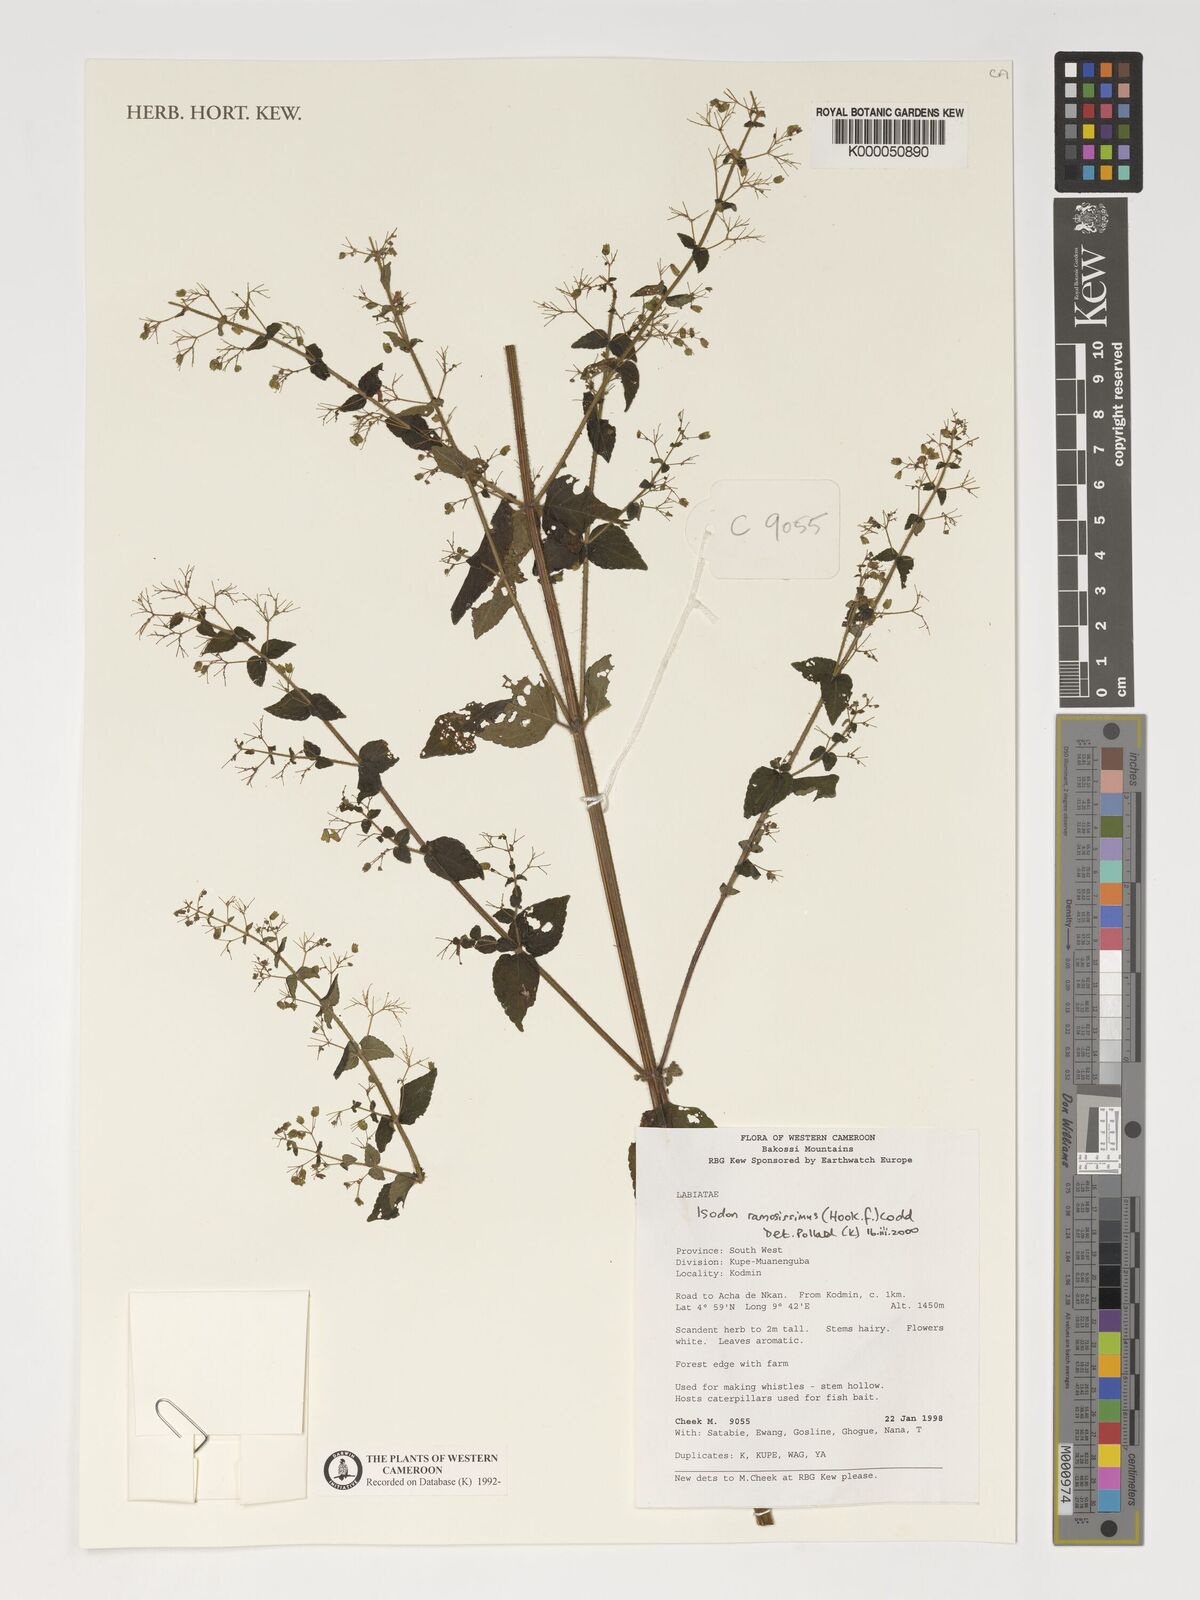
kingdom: Plantae
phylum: Tracheophyta
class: Magnoliopsida
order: Lamiales
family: Lamiaceae
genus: Isodon
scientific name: Isodon ramosissimus
